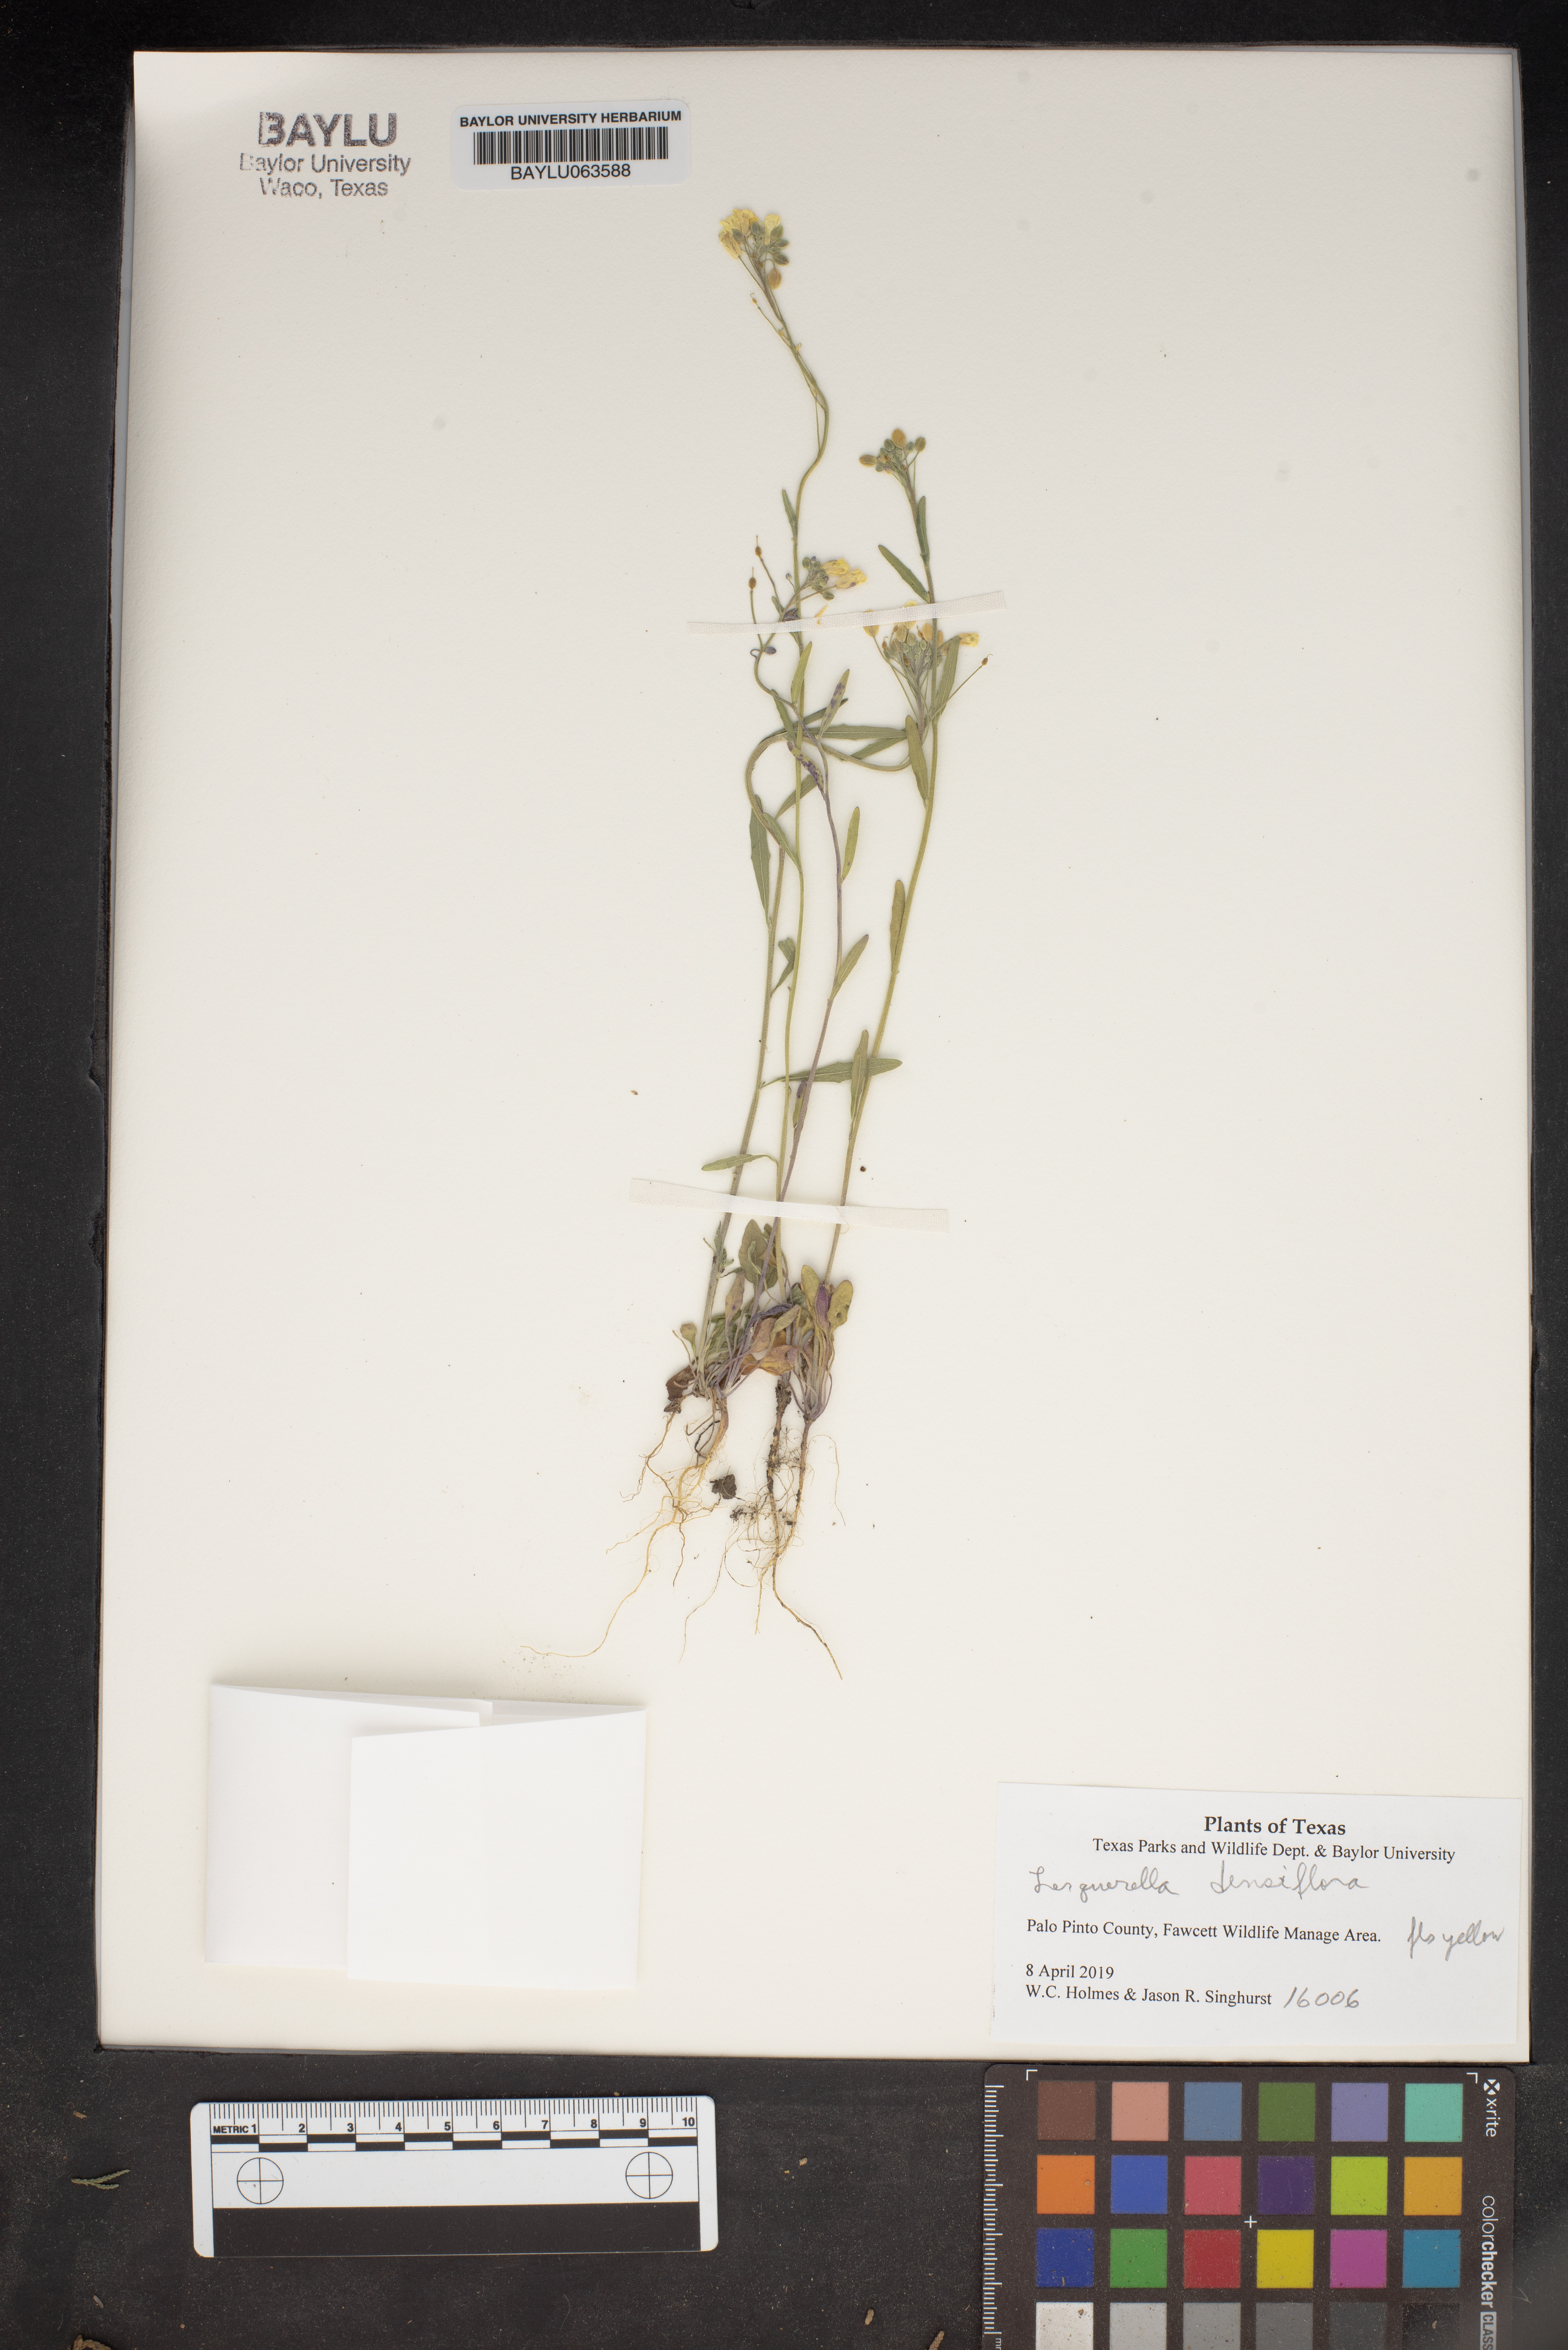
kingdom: Plantae
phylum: Tracheophyta
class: Magnoliopsida
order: Brassicales
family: Brassicaceae
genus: Physaria
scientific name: Physaria densiflora
